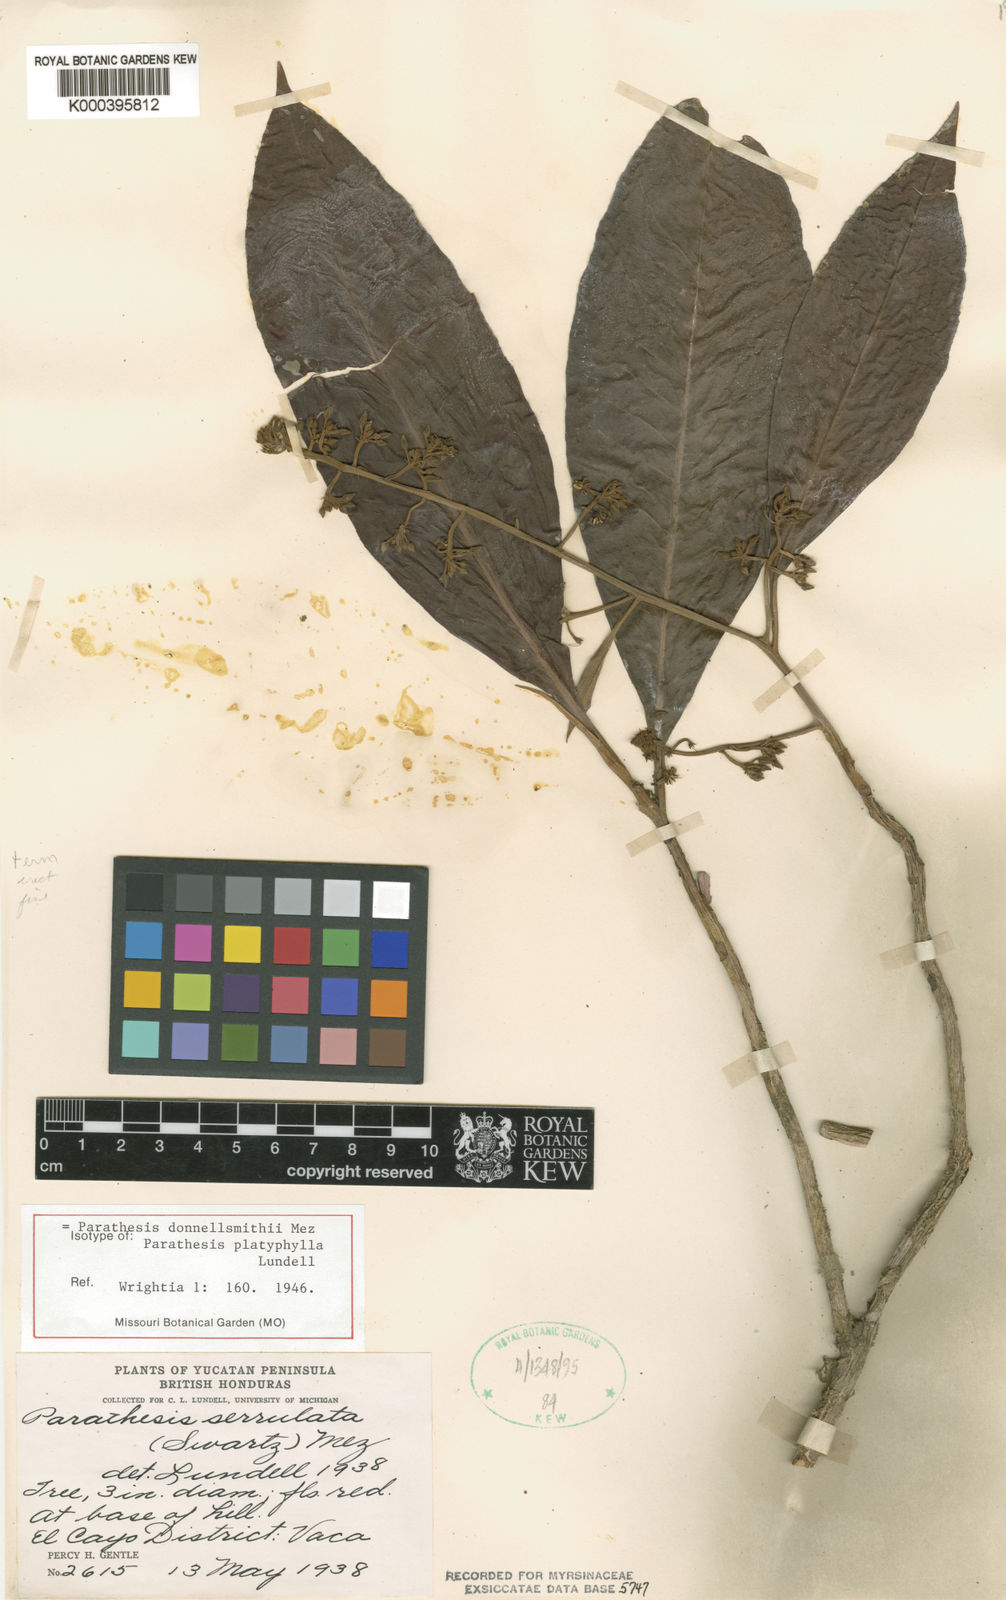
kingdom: Plantae
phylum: Tracheophyta
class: Magnoliopsida
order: Ericales
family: Primulaceae
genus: Parathesis
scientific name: Parathesis donnell-smithii
